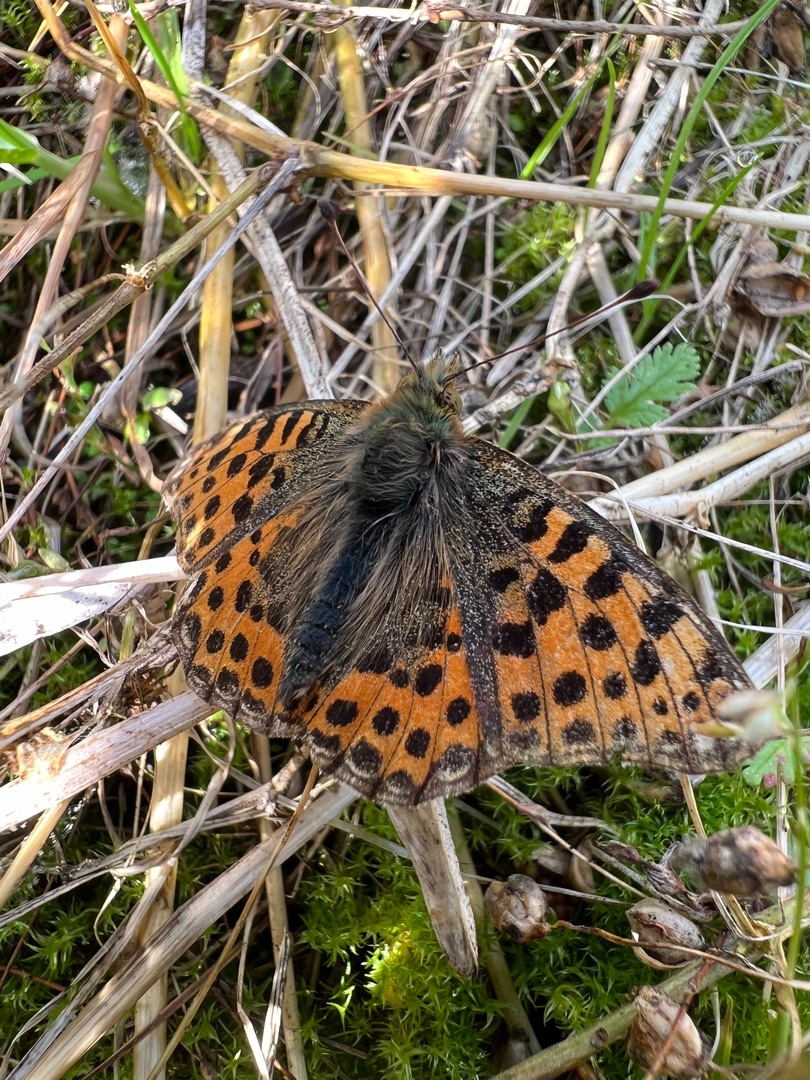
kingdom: Animalia
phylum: Arthropoda
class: Insecta
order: Lepidoptera
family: Nymphalidae
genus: Issoria
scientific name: Issoria lathonia
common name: Storplettet perlemorsommerfugl
